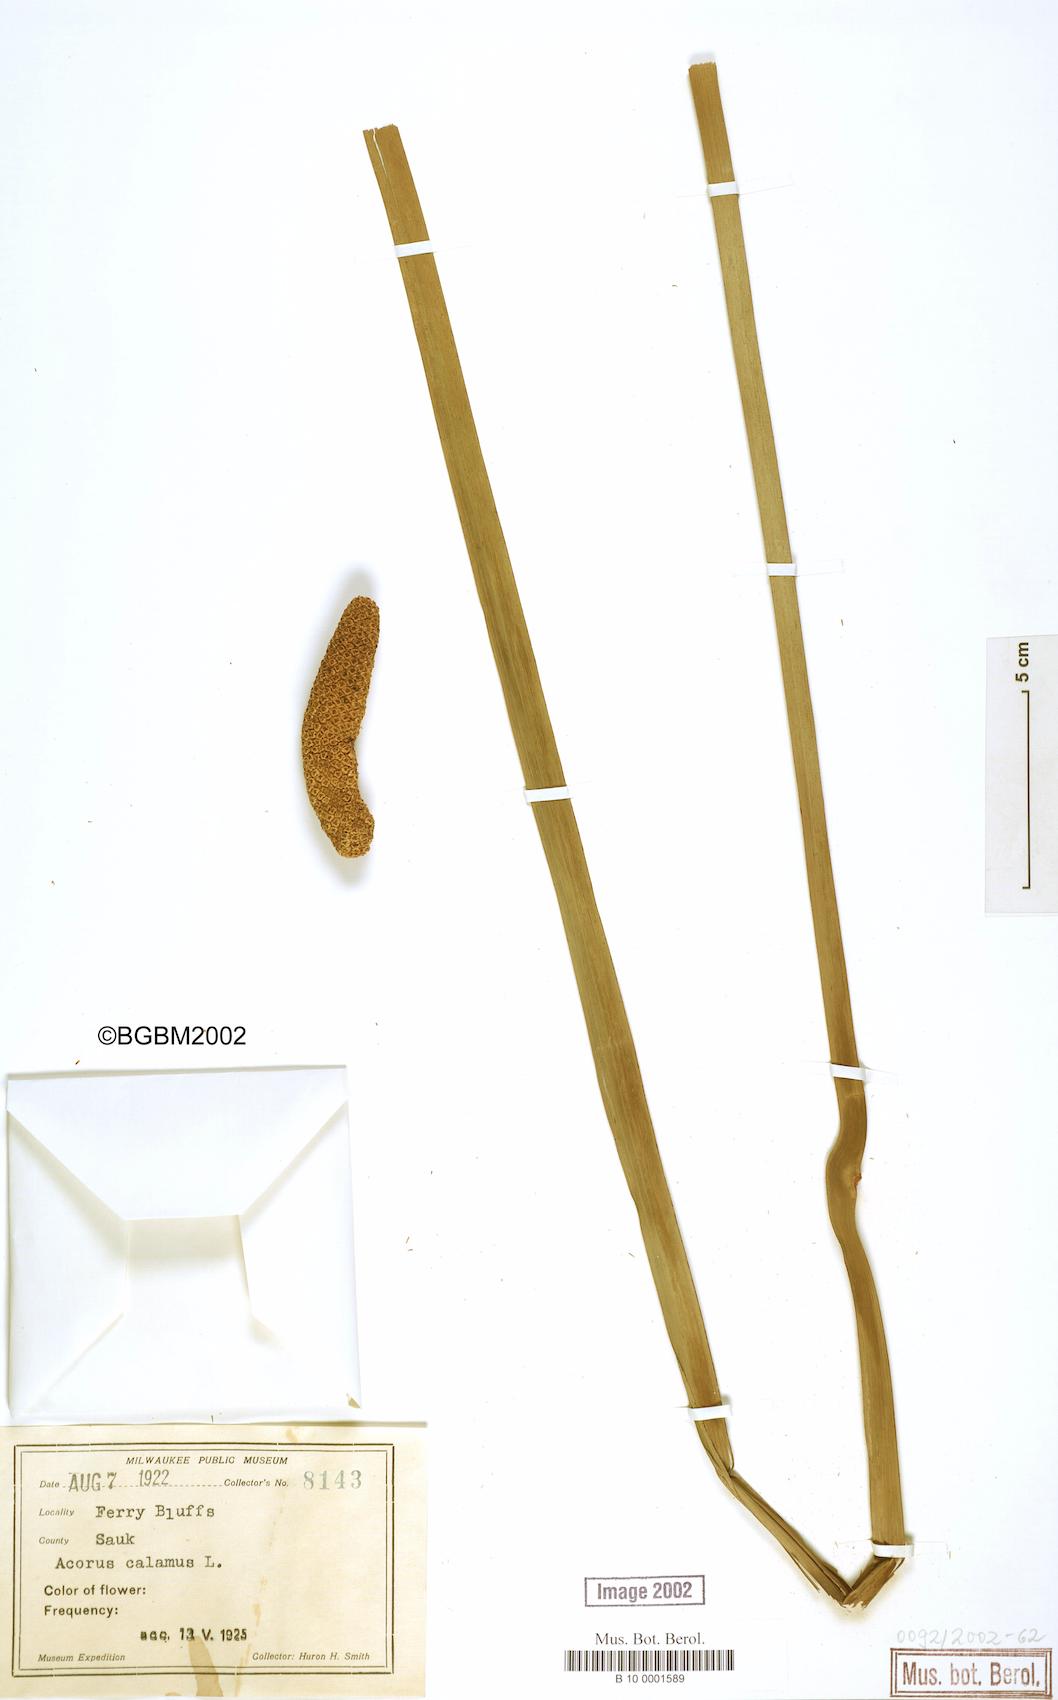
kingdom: Plantae
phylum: Tracheophyta
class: Liliopsida
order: Acorales
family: Acoraceae
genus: Acorus
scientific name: Acorus calamus
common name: Sweet-flag
